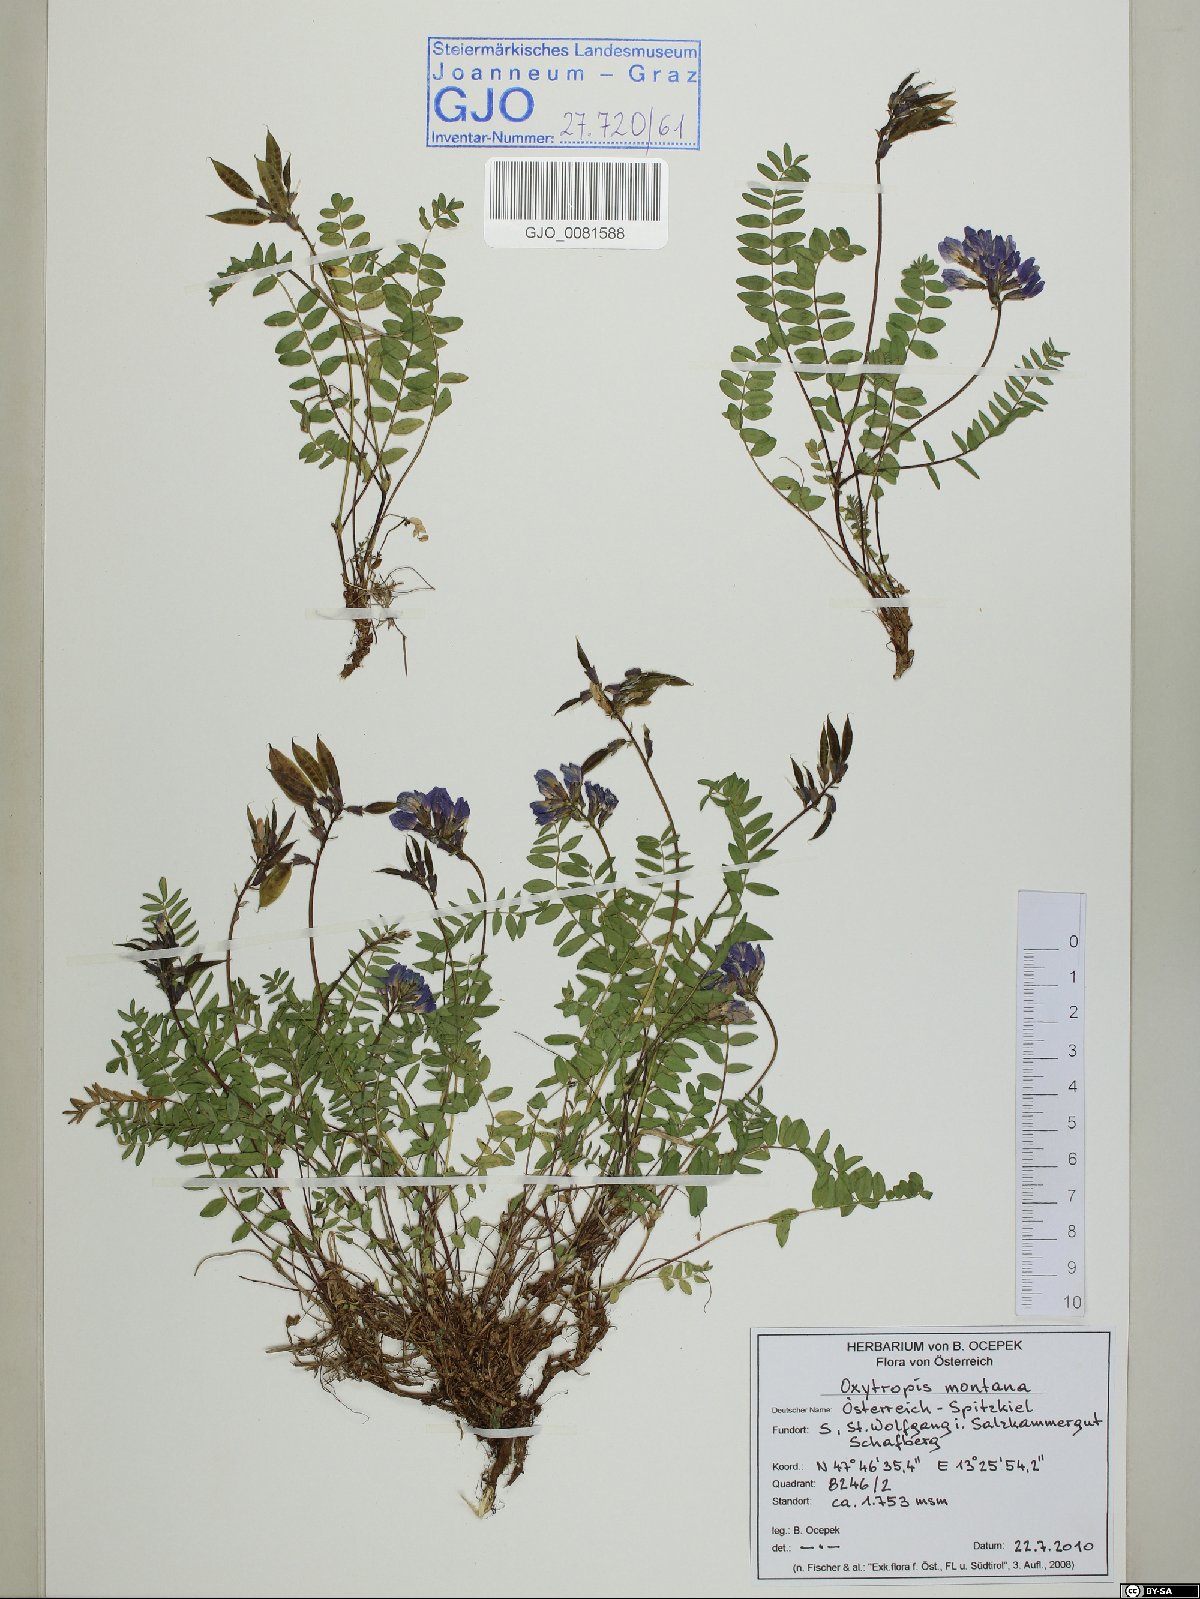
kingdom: Plantae
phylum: Tracheophyta
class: Magnoliopsida
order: Fabales
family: Fabaceae
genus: Oxytropis
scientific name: Oxytropis montana
